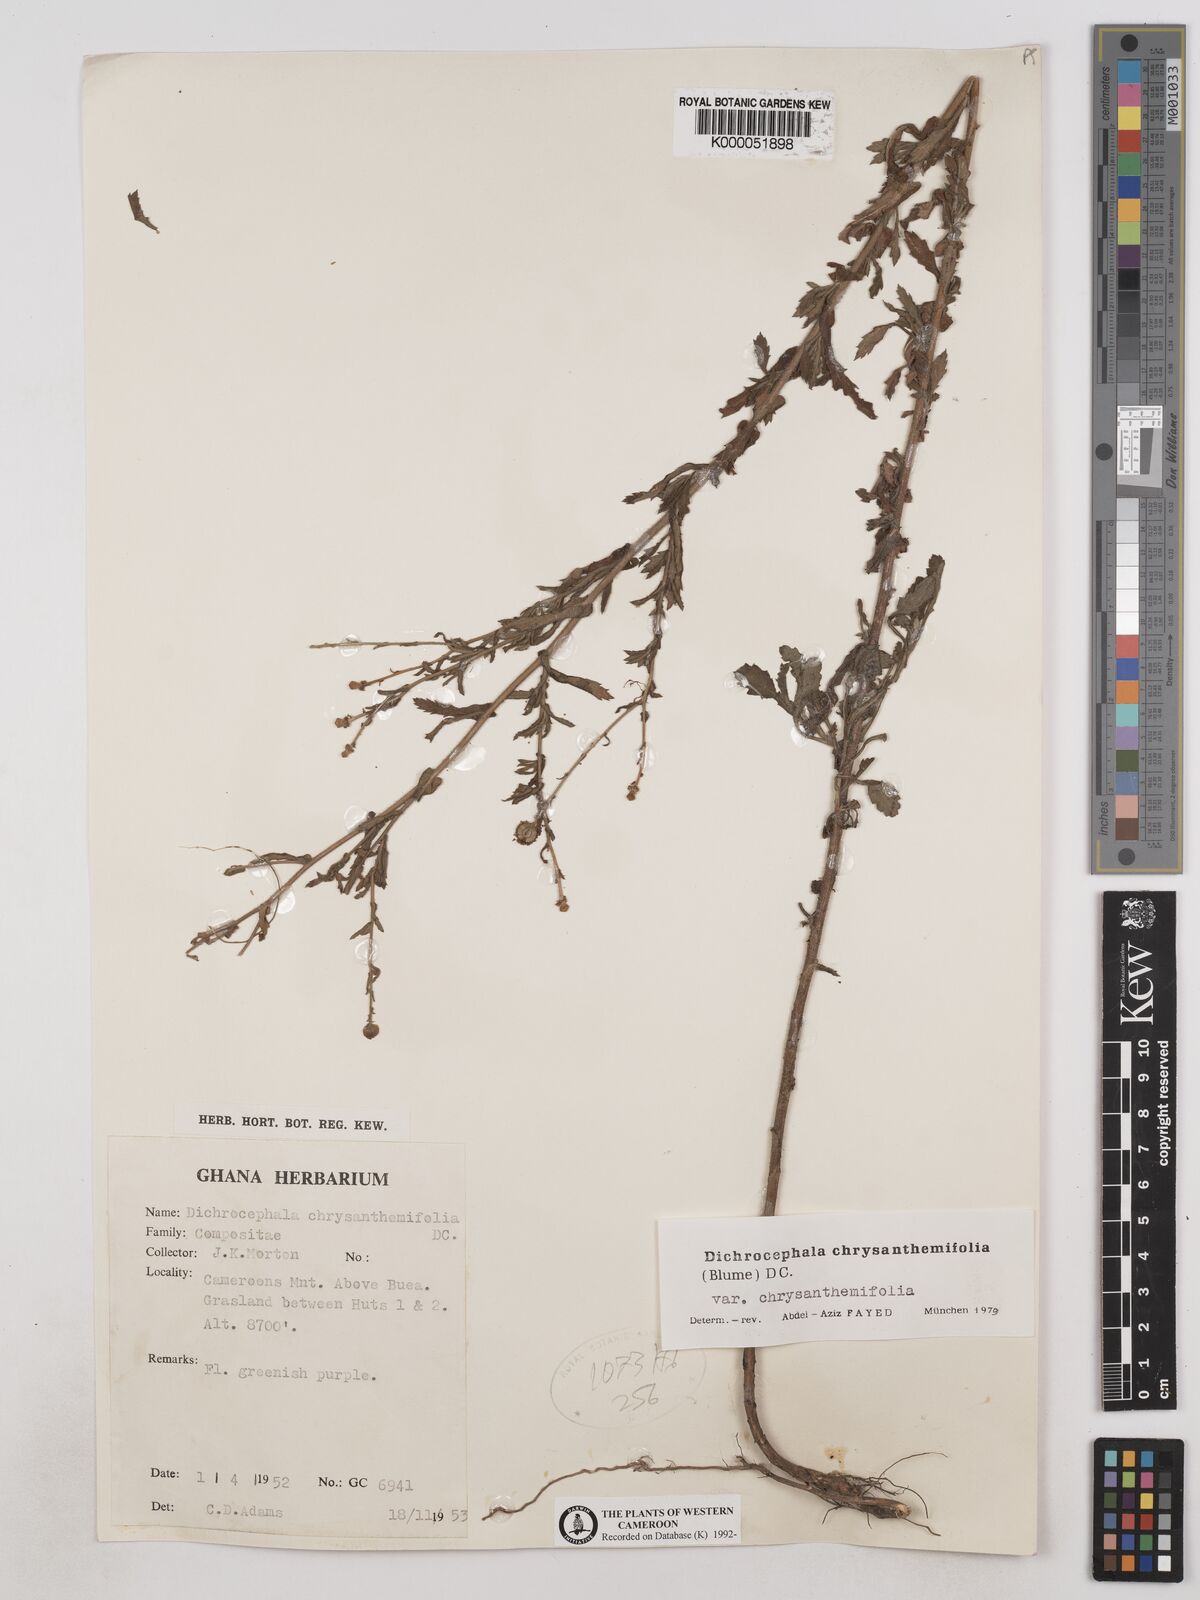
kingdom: Plantae
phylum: Tracheophyta
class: Magnoliopsida
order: Asterales
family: Asteraceae
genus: Dichrocephala
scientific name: Dichrocephala chrysanthemifolia
